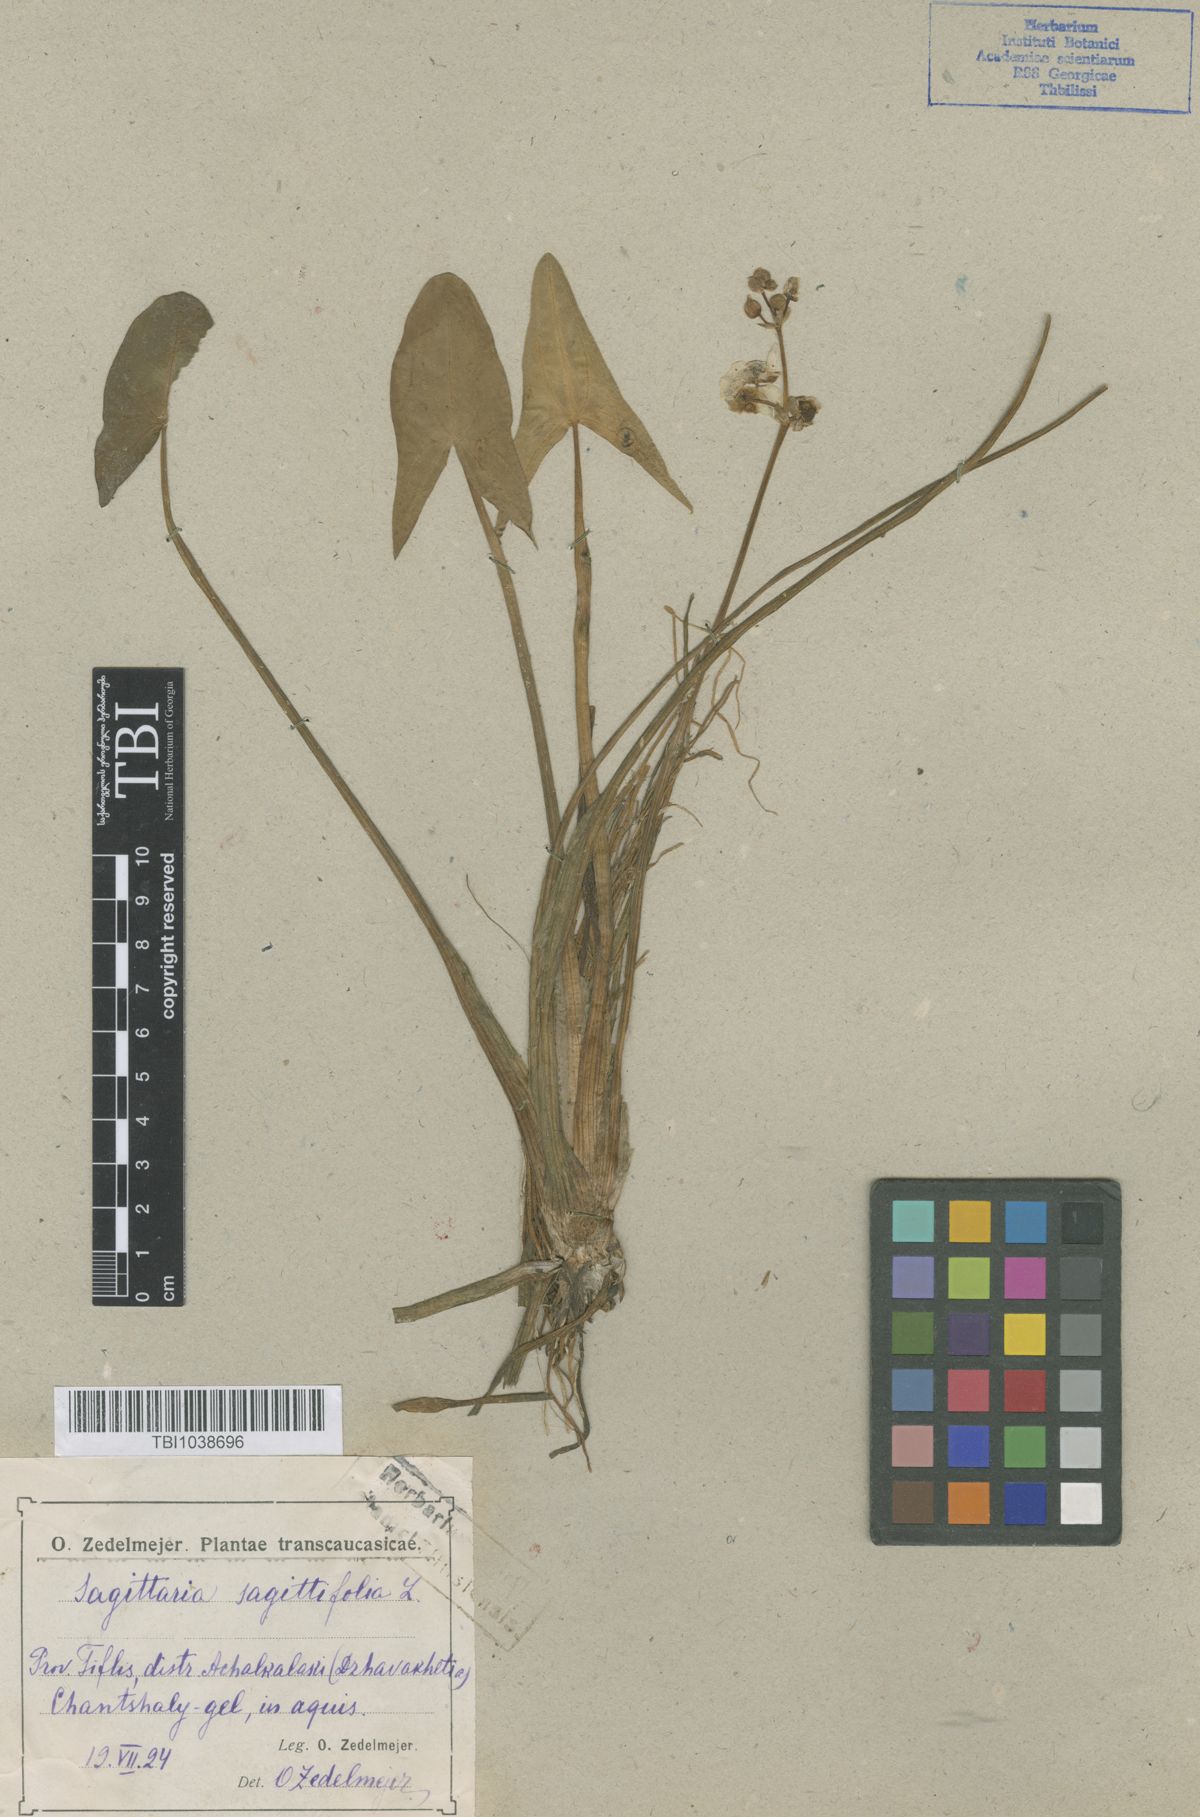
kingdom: Plantae
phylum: Tracheophyta
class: Liliopsida
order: Alismatales
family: Alismataceae
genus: Sagittaria
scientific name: Sagittaria sagittifolia
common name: Arrowhead
